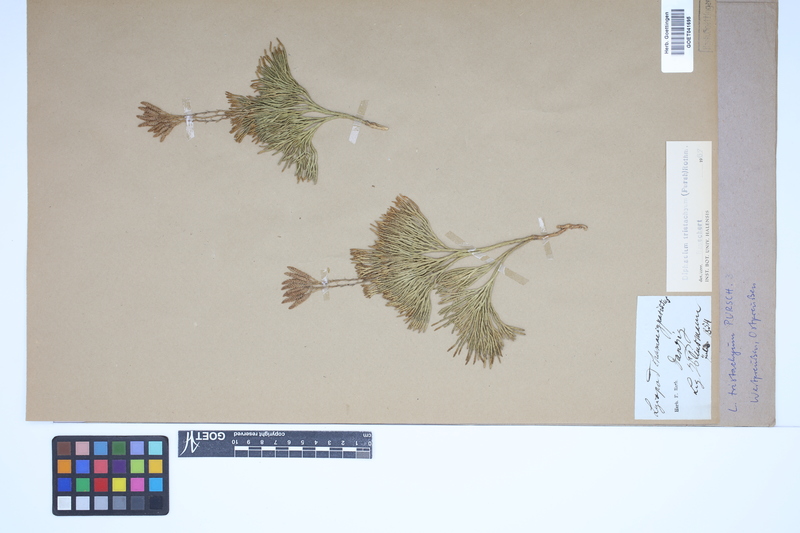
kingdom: Plantae
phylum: Tracheophyta
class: Lycopodiopsida
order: Lycopodiales
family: Lycopodiaceae
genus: Diphasiastrum
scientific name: Diphasiastrum tristachyum
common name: Blue ground-cedar
